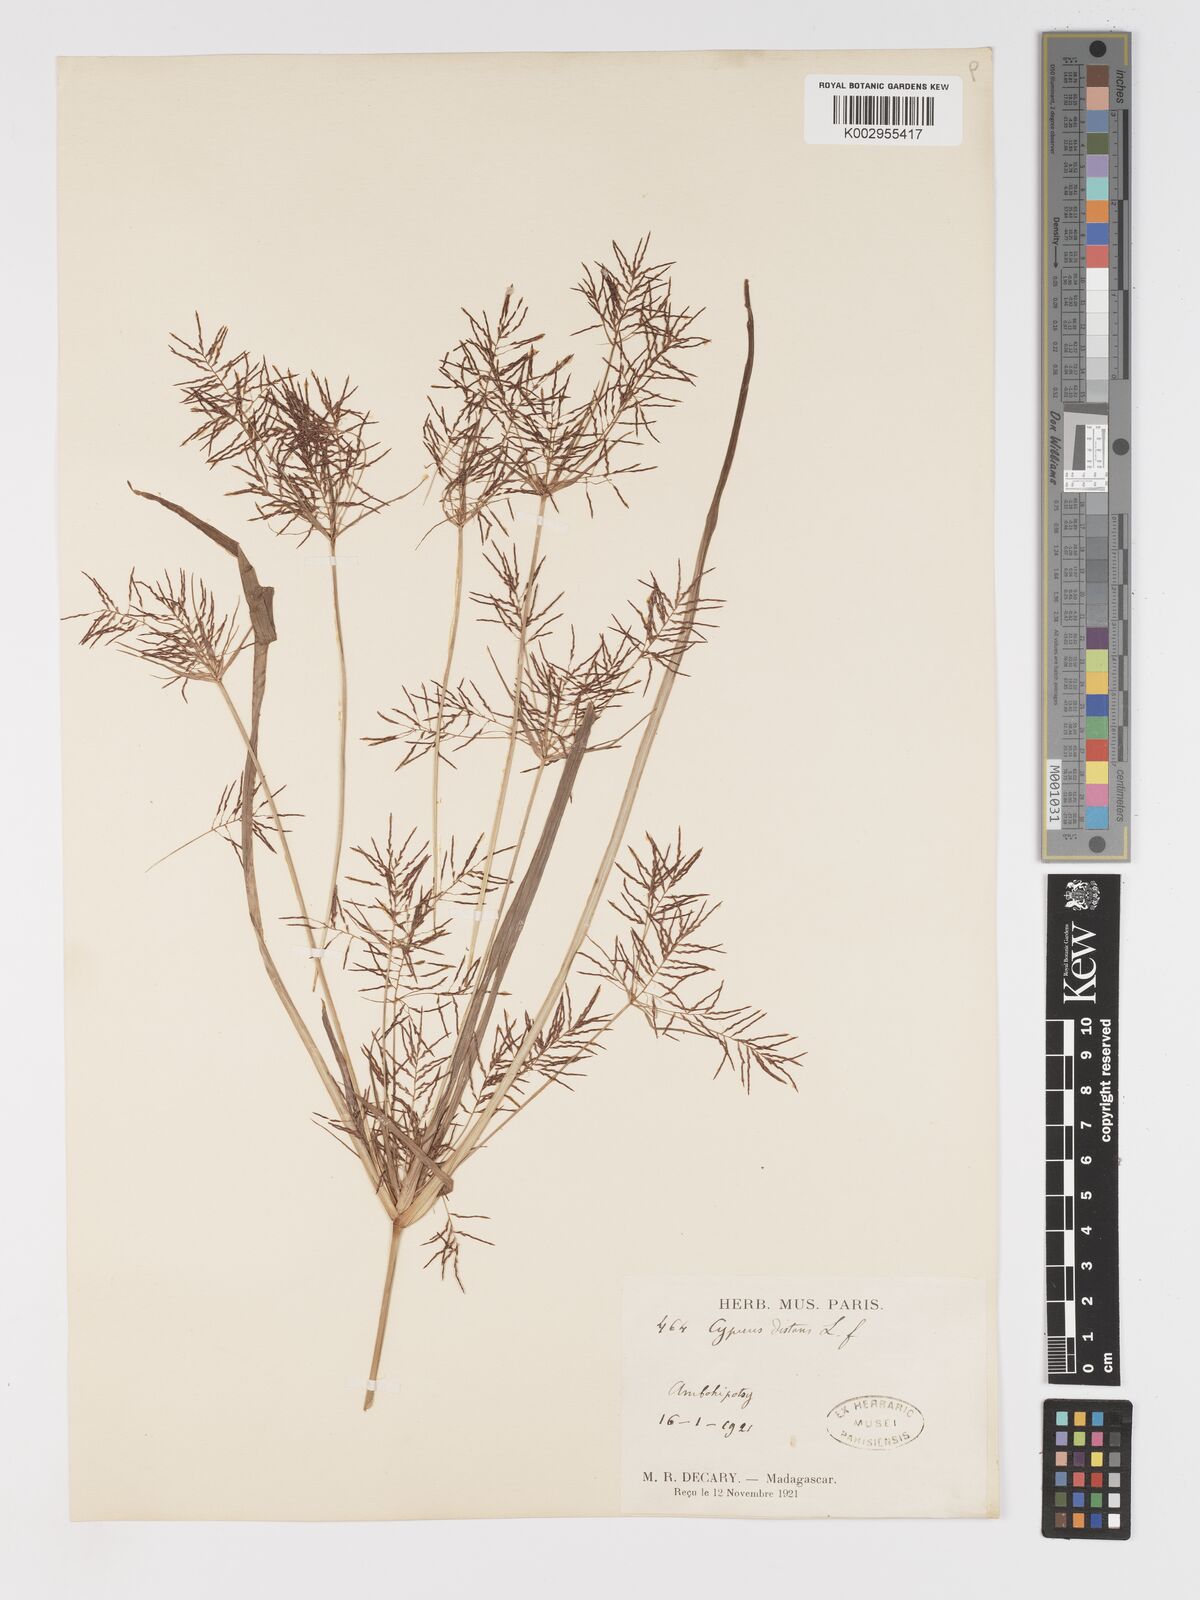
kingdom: Plantae
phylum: Tracheophyta
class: Liliopsida
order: Poales
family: Cyperaceae
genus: Cyperus
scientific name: Cyperus distans
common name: Slender cyperus
